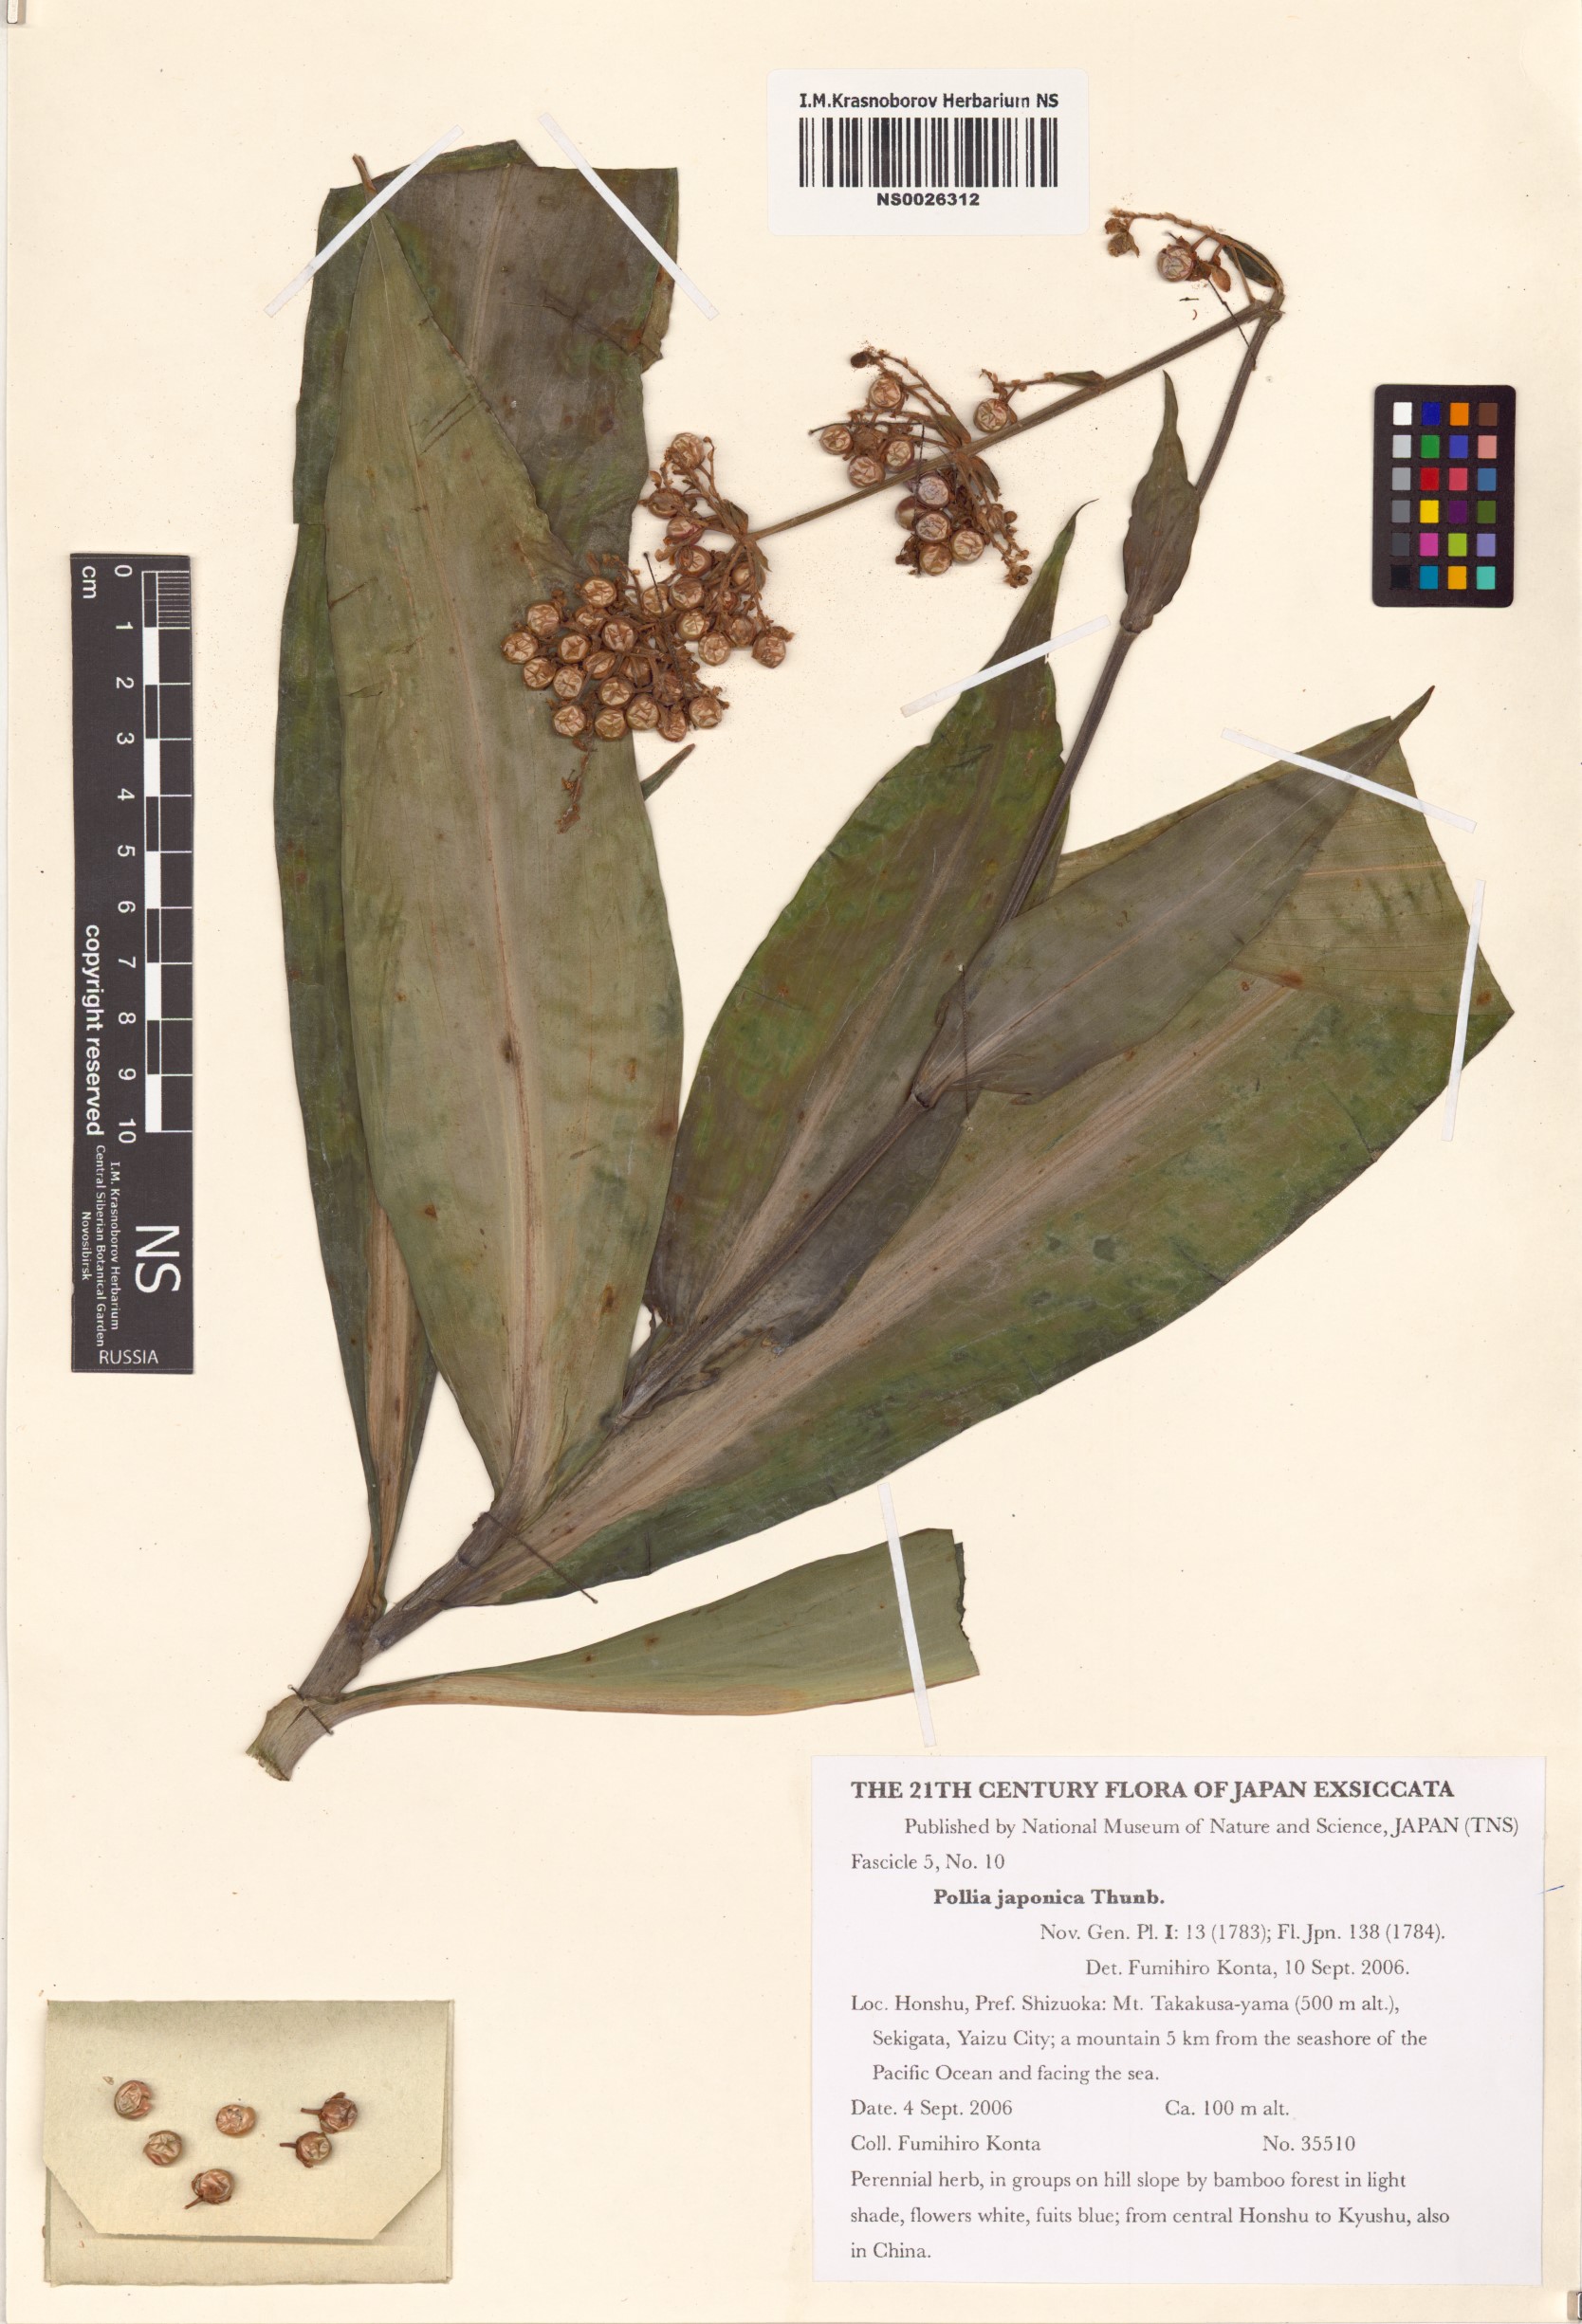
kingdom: Plantae
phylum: Tracheophyta
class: Liliopsida
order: Commelinales
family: Commelinaceae
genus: Pollia
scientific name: Pollia japonica
